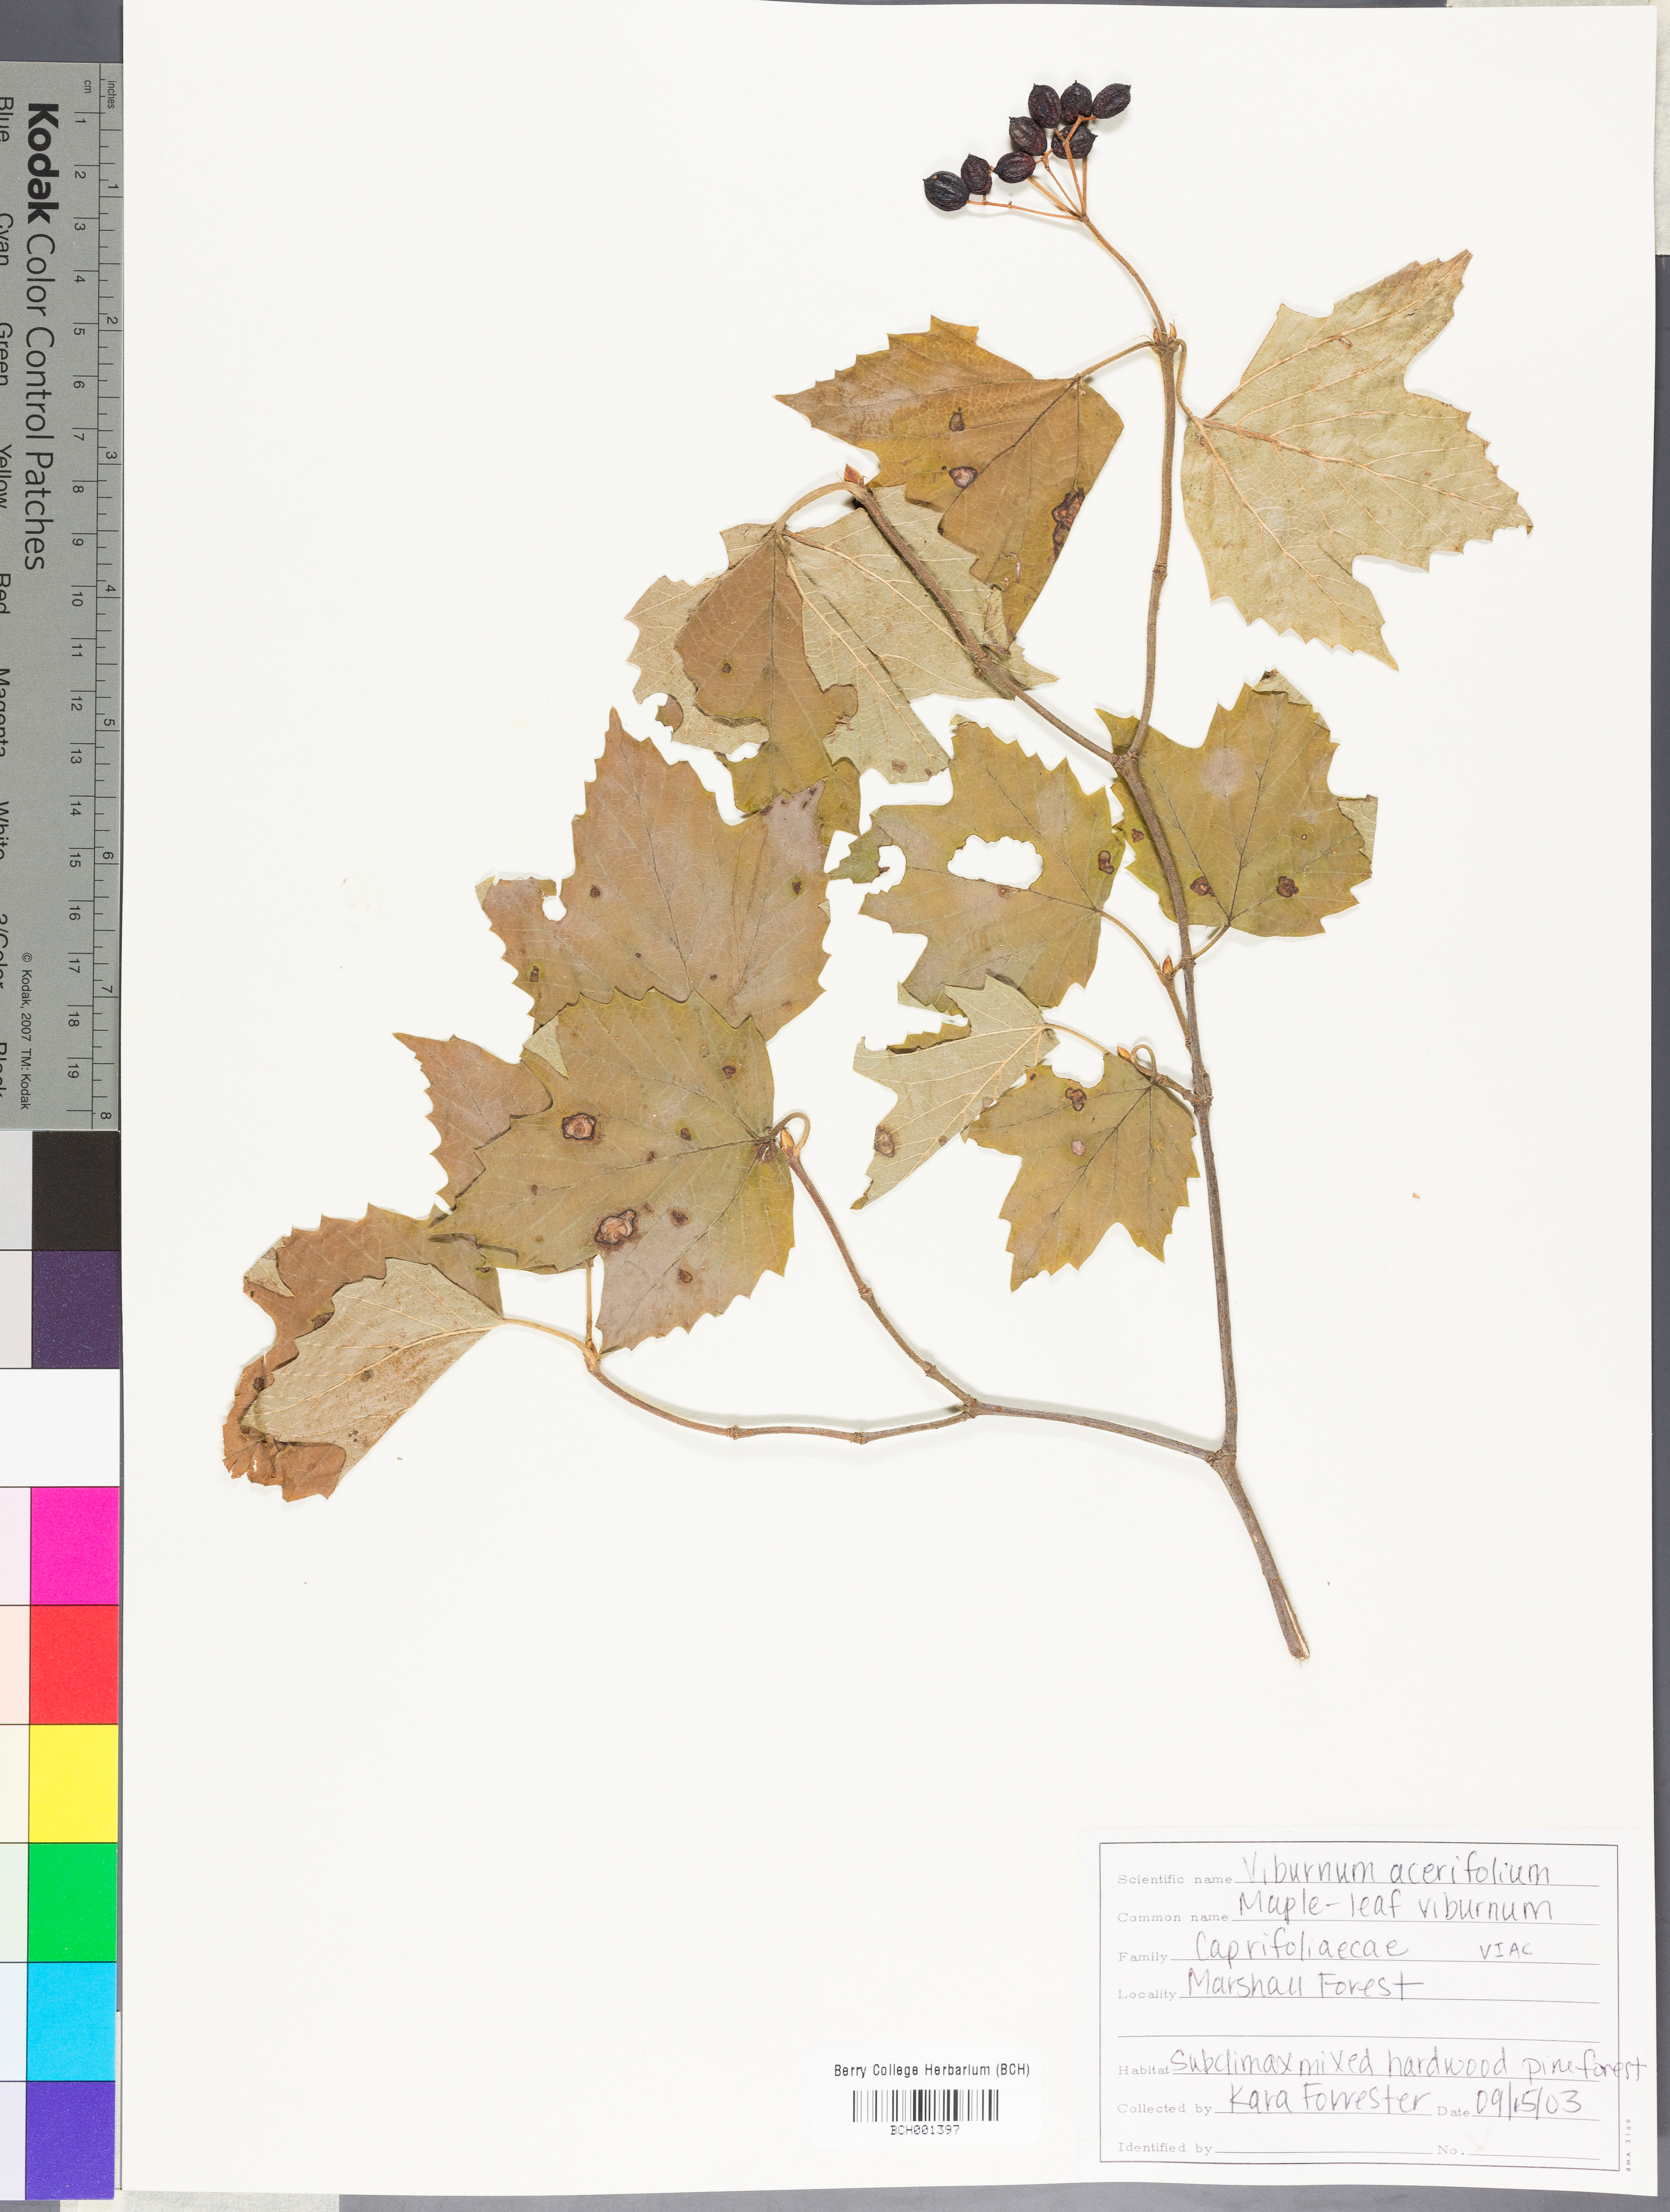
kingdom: Plantae
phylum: Tracheophyta
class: Magnoliopsida
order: Dipsacales
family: Viburnaceae
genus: Viburnum
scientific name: Viburnum acerifolium
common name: Dockmackie
